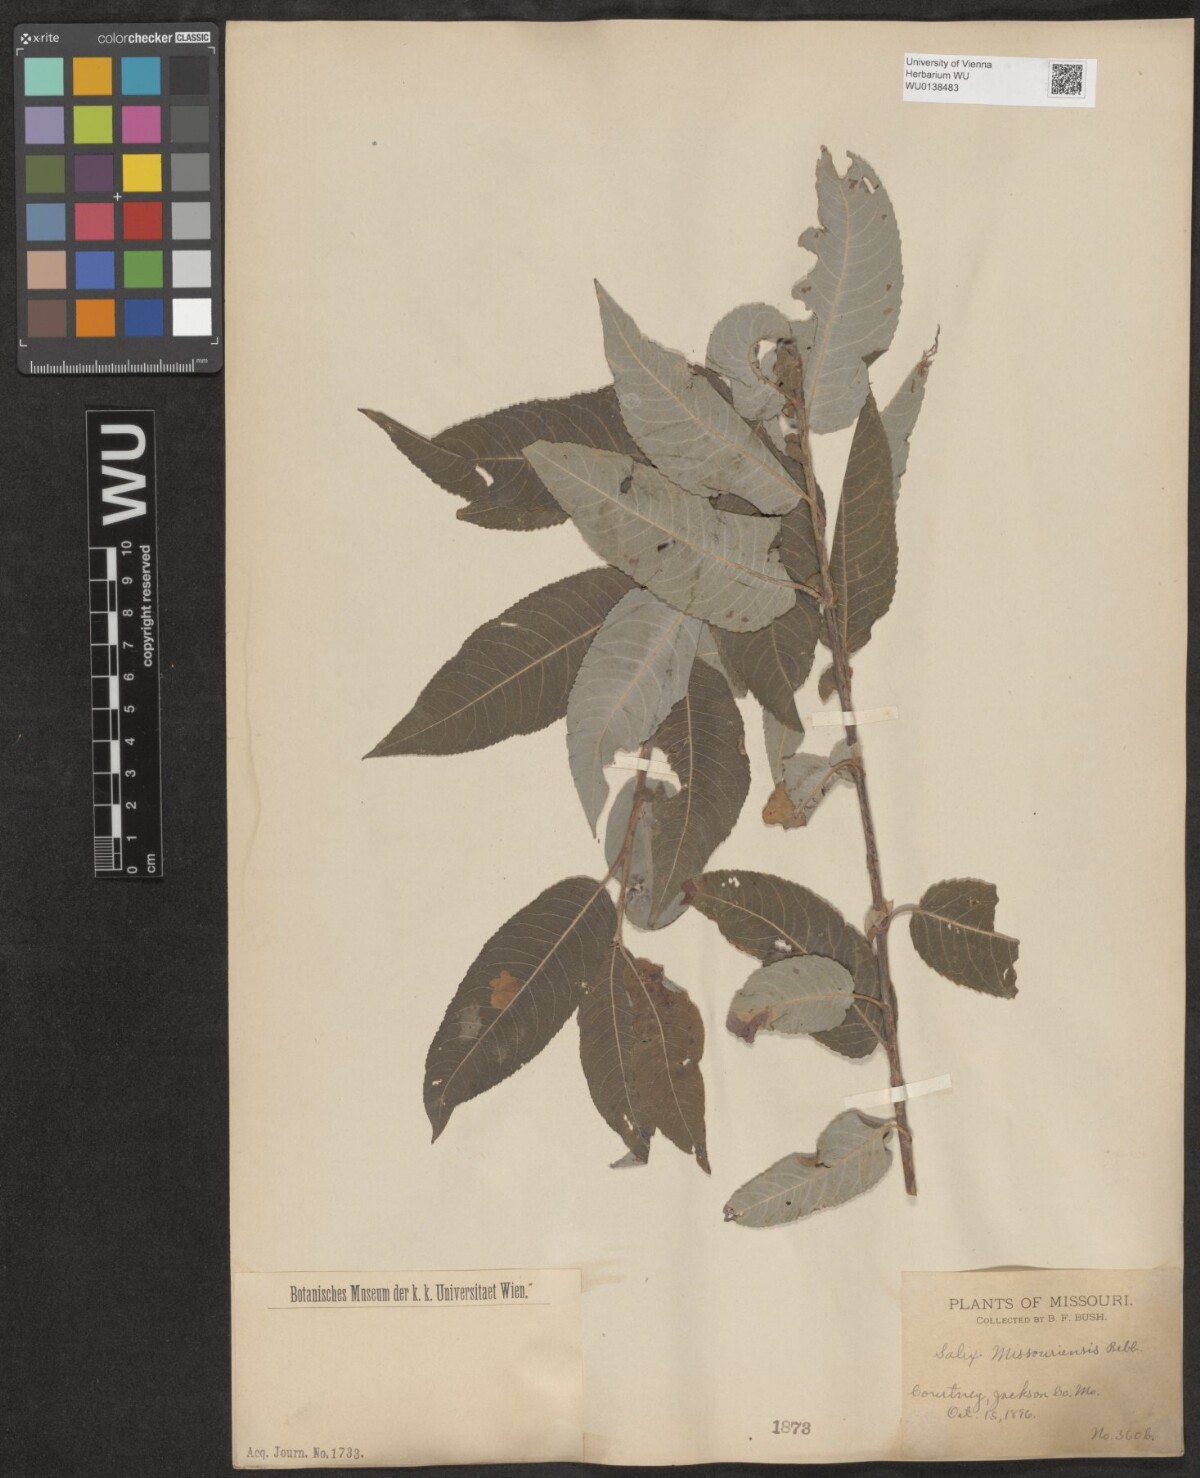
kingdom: Plantae
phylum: Tracheophyta
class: Magnoliopsida
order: Malpighiales
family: Salicaceae
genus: Salix
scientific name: Salix eriocephala
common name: Heart-leaved willow
